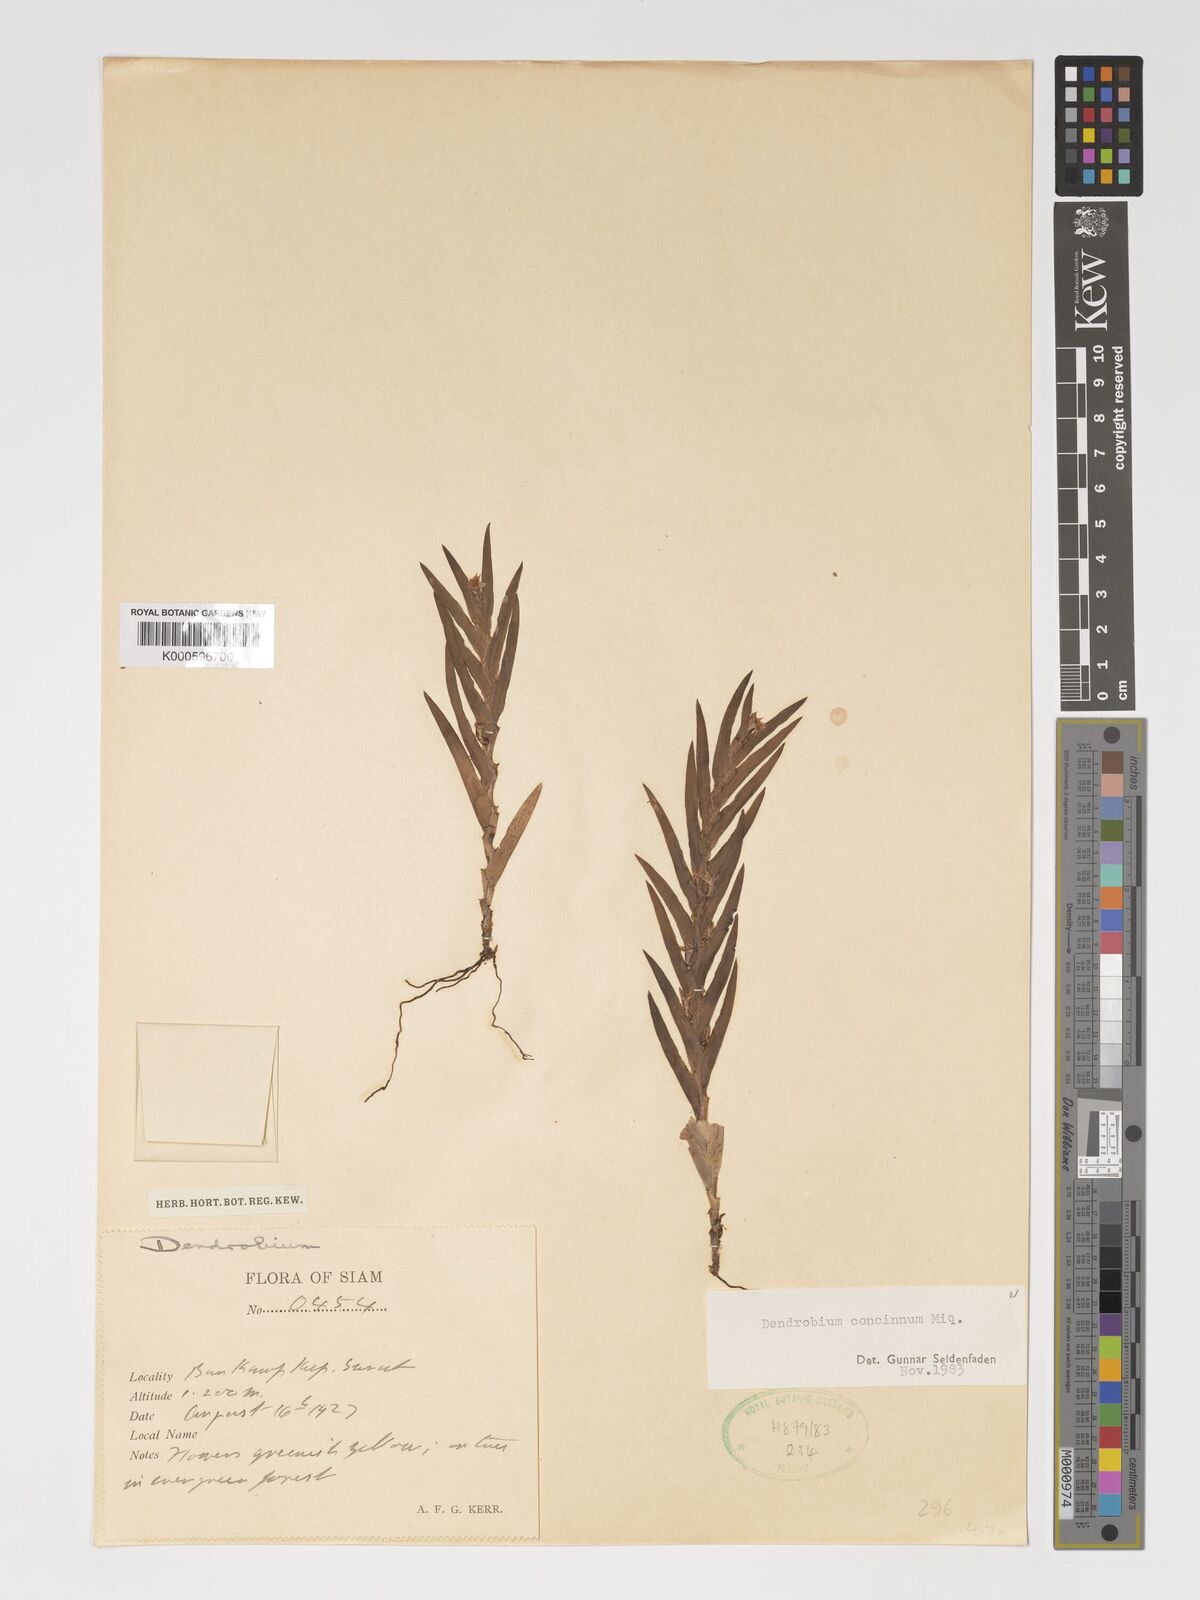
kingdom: Plantae
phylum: Tracheophyta
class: Liliopsida
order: Asparagales
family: Orchidaceae
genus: Oxystophyllum
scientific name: Oxystophyllum carnosum
